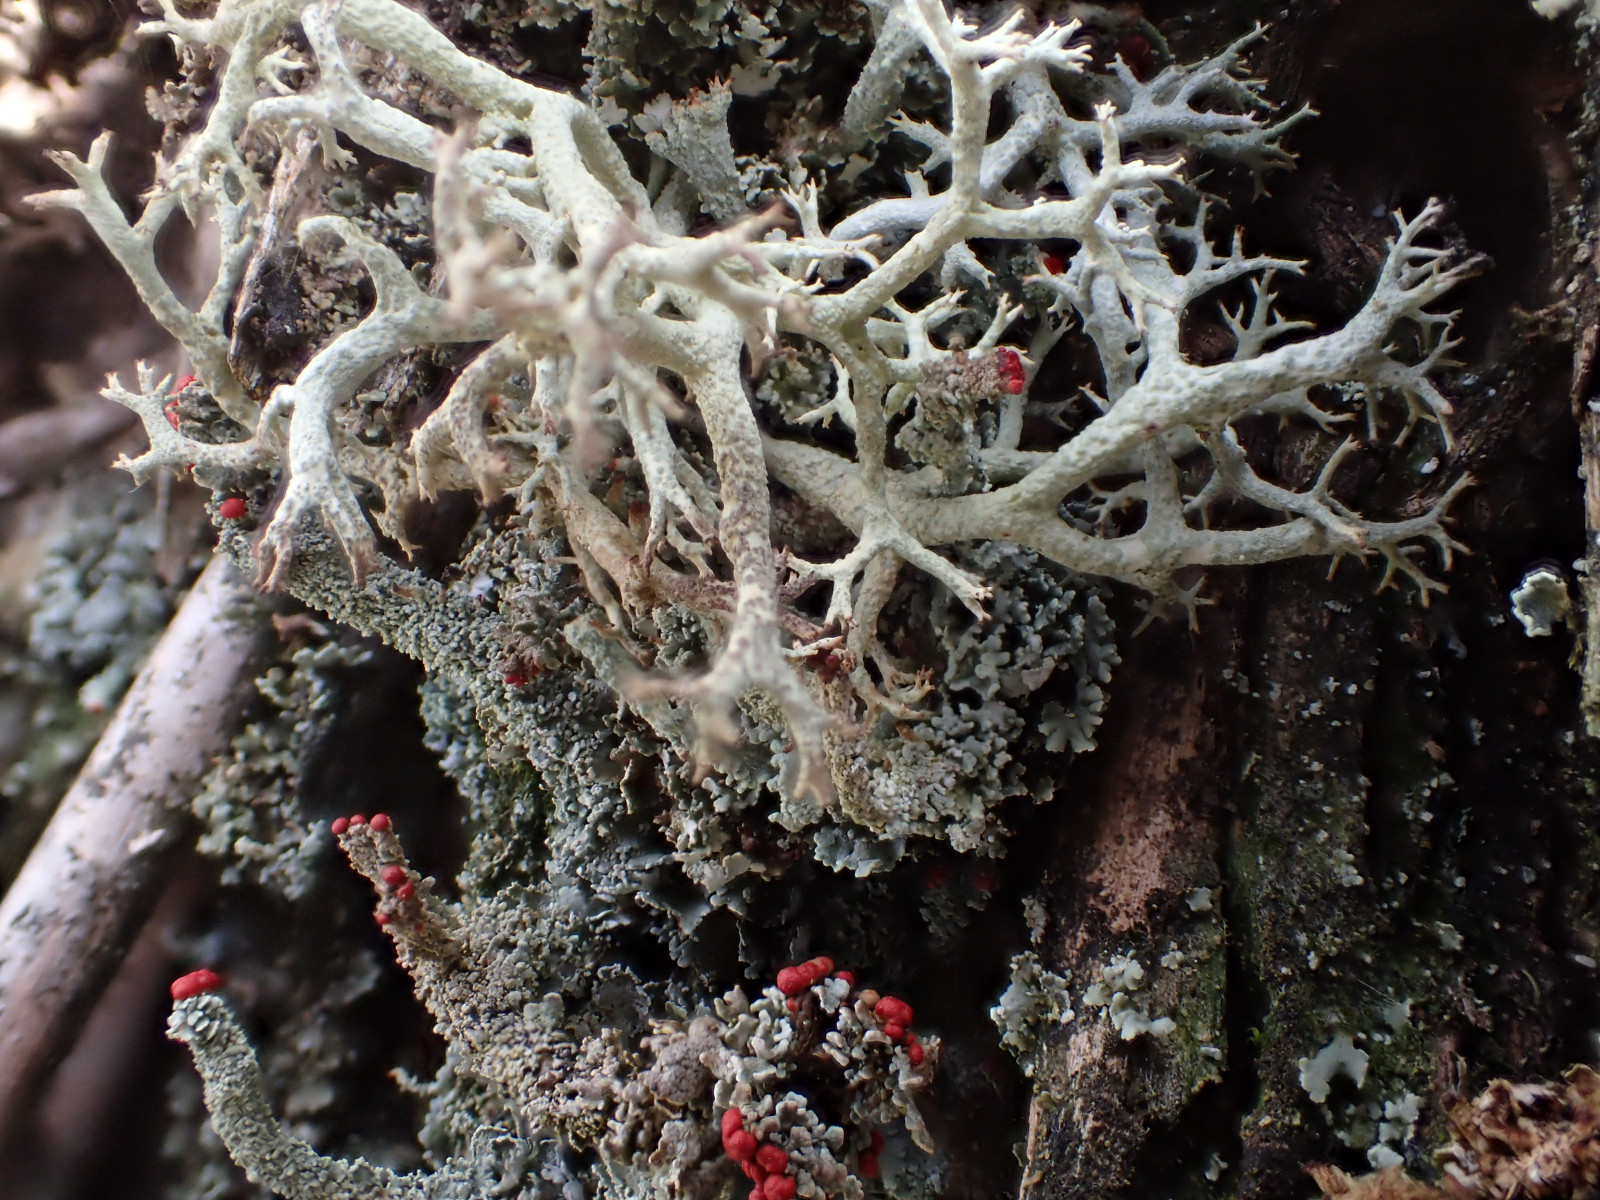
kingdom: Fungi
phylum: Ascomycota
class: Lecanoromycetes
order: Lecanorales
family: Cladoniaceae
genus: Cladonia
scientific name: Cladonia portentosa
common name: hede-rensdyrlav
